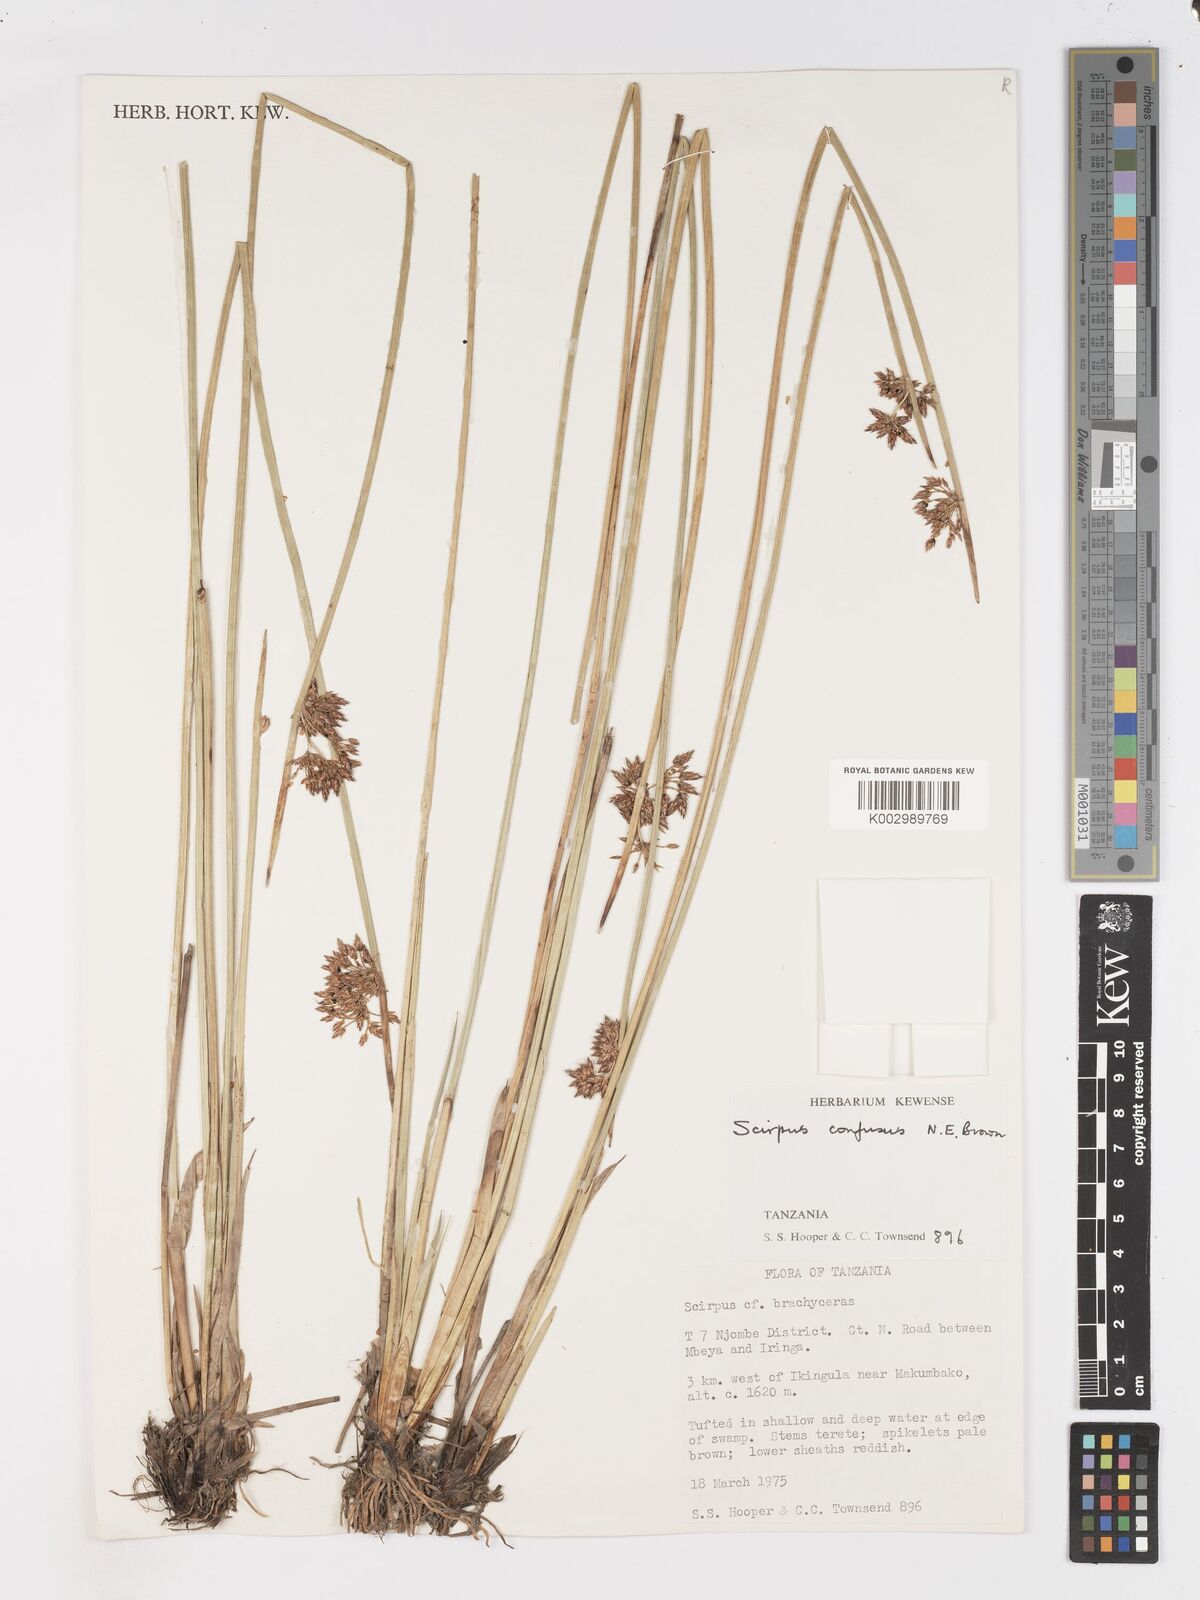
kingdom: Plantae
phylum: Tracheophyta
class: Liliopsida
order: Poales
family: Cyperaceae
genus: Schoenoplectiella
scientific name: Schoenoplectiella confusa
